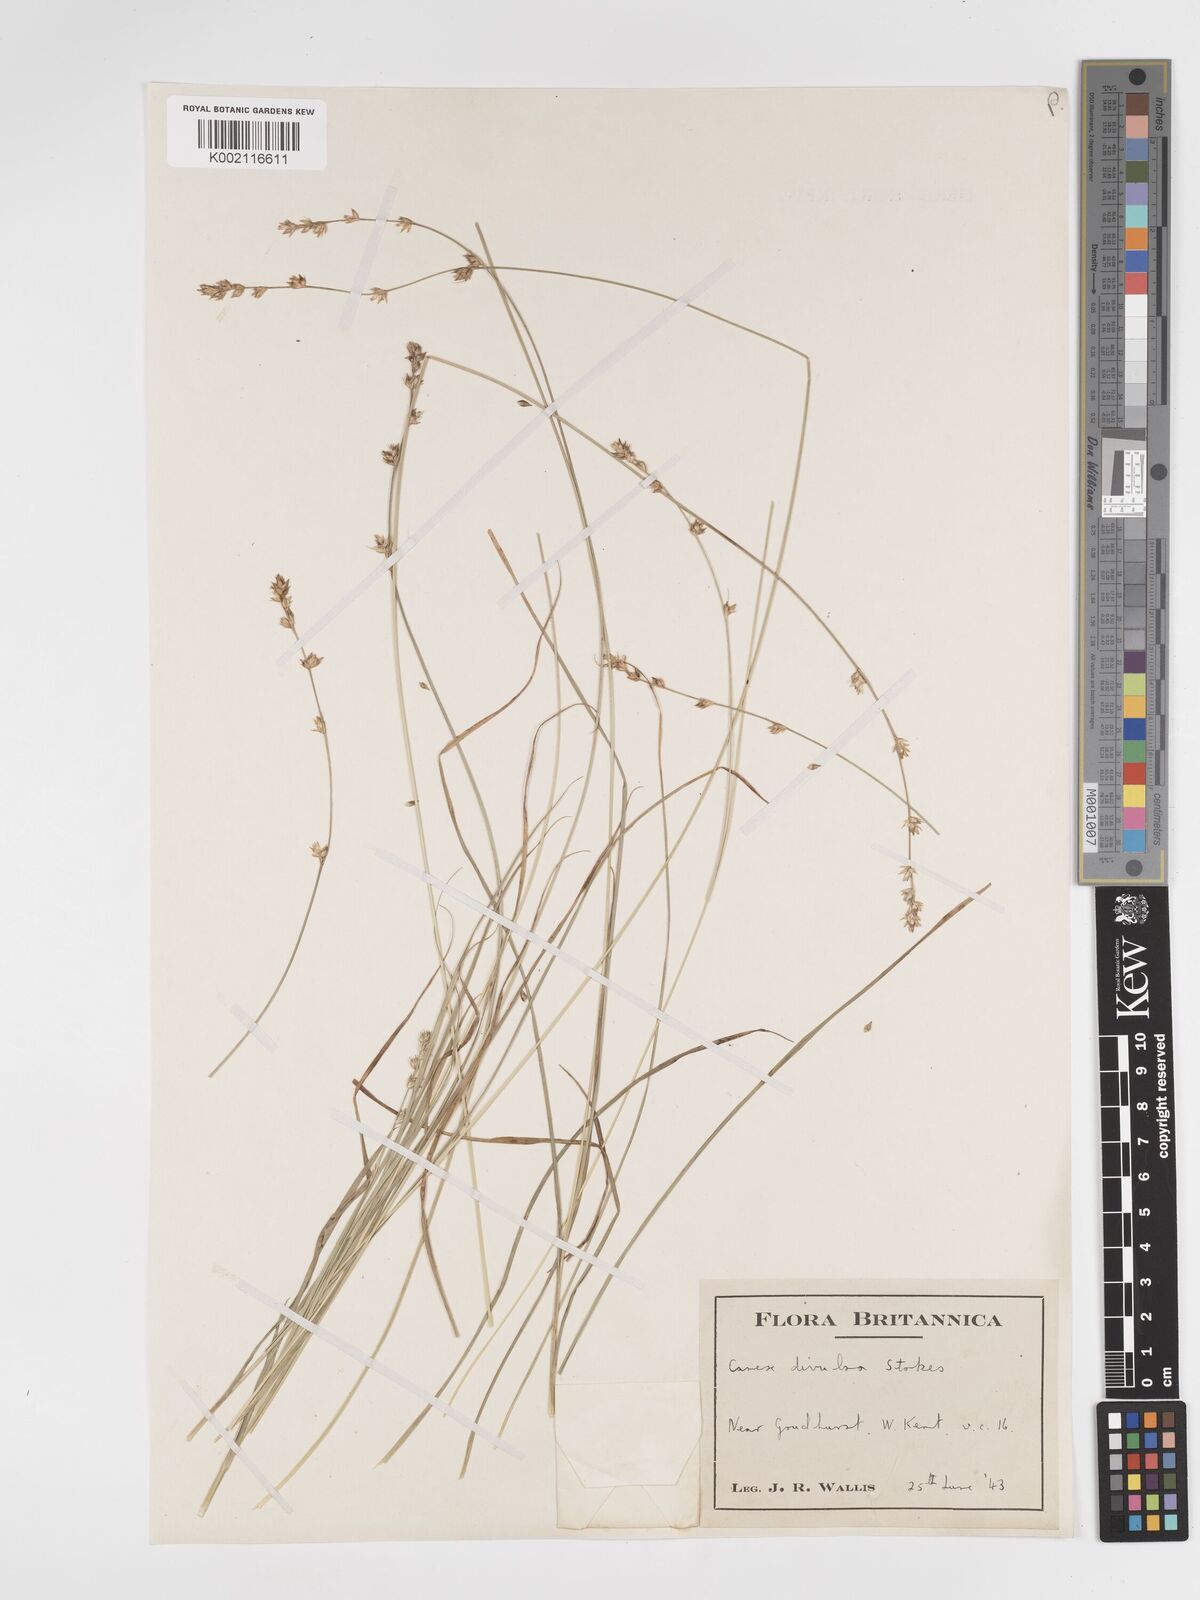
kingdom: Plantae
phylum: Tracheophyta
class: Liliopsida
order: Poales
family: Cyperaceae
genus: Carex
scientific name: Carex divulsa
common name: Grassland sedge
